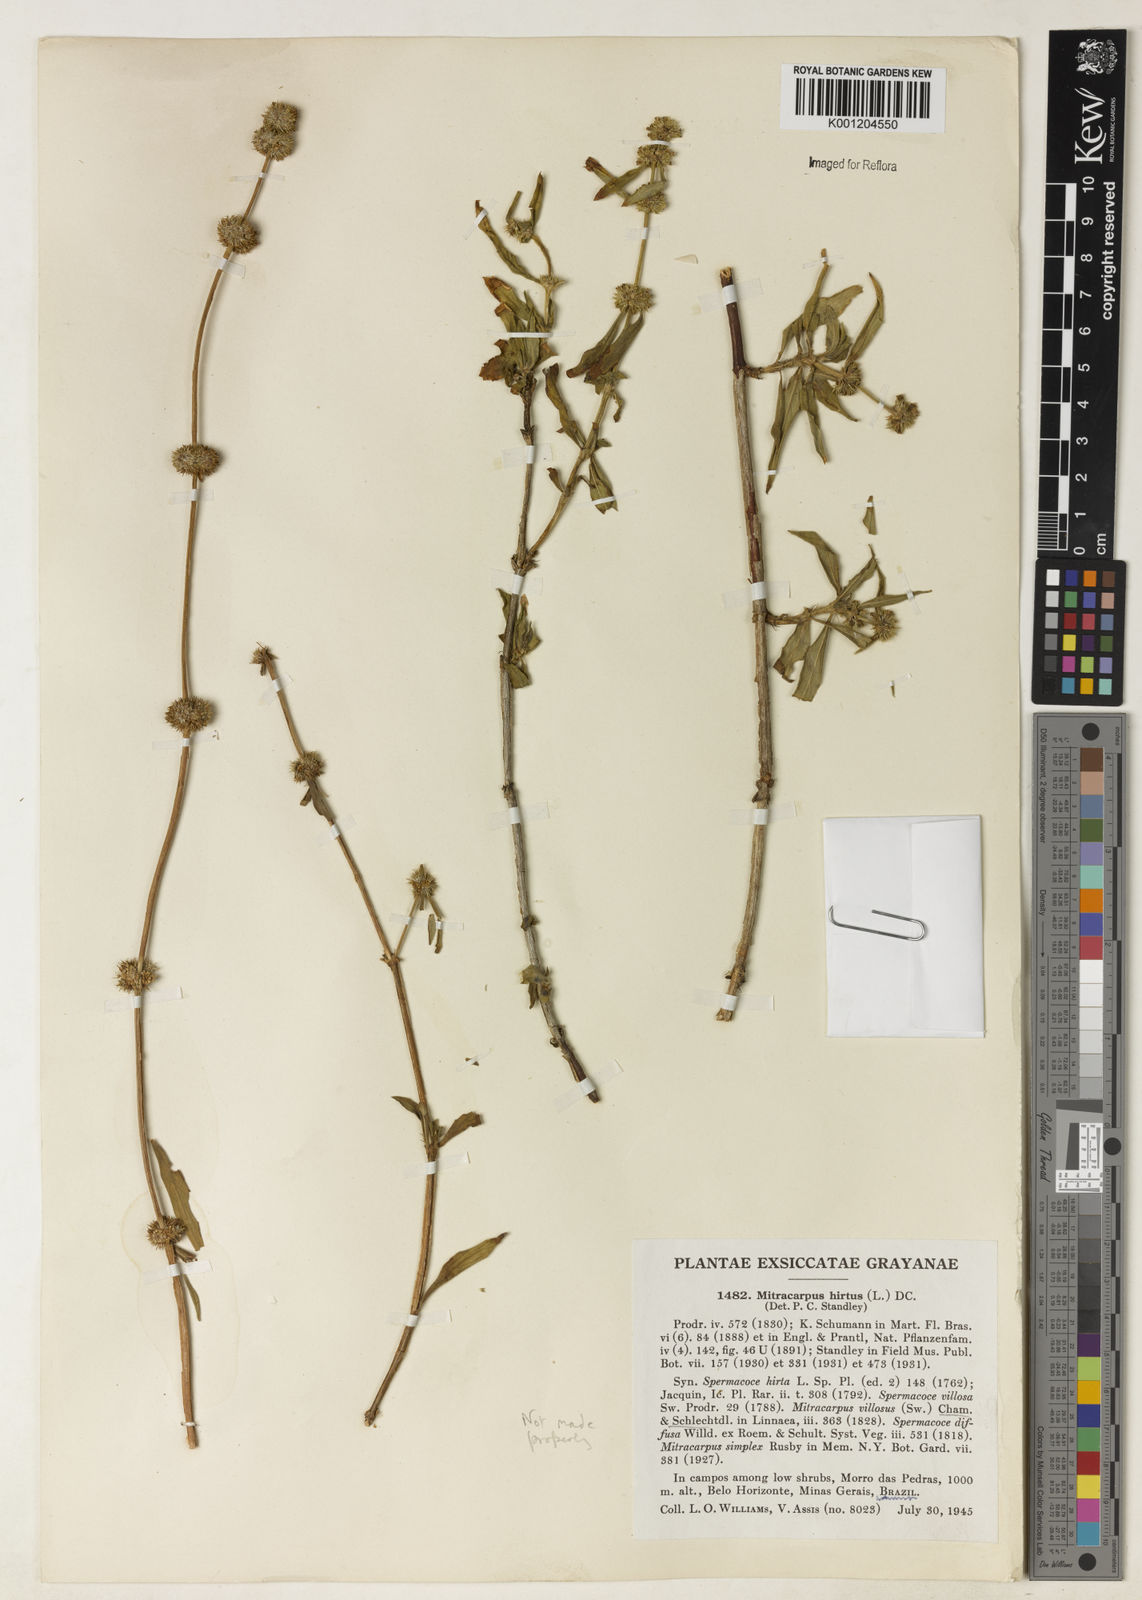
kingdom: Plantae
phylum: Tracheophyta
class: Magnoliopsida
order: Gentianales
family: Rubiaceae
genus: Mitracarpus
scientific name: Mitracarpus
